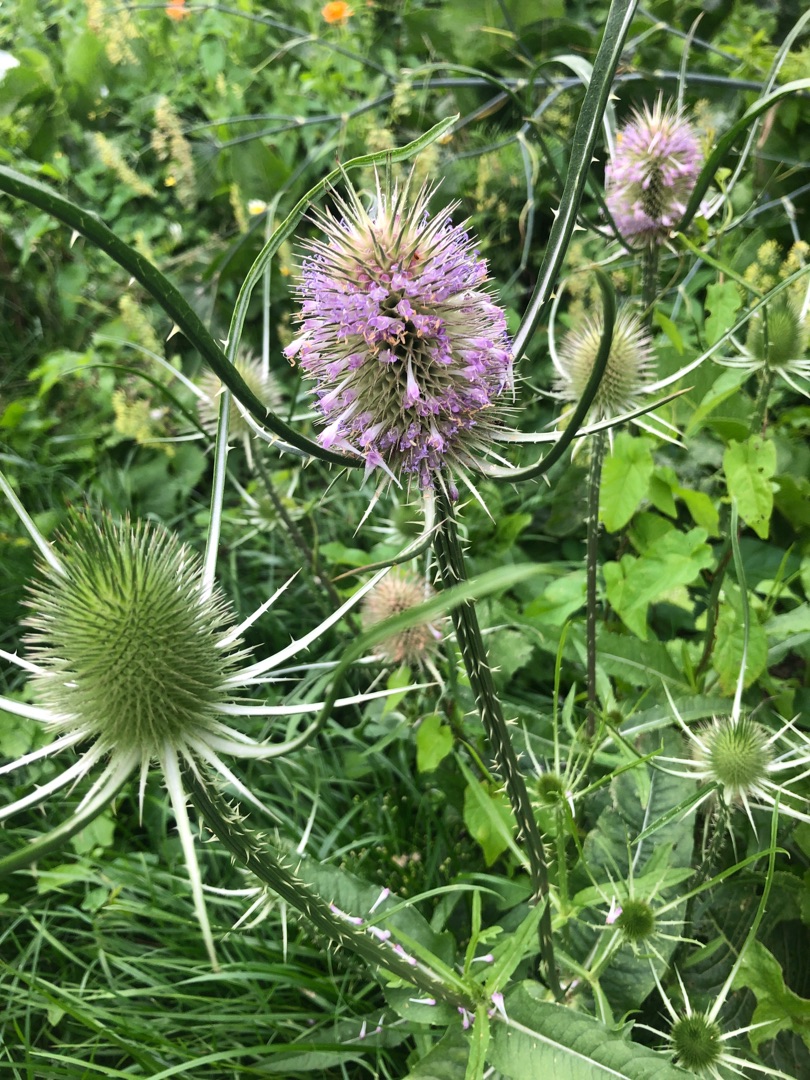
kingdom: Plantae
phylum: Tracheophyta
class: Magnoliopsida
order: Dipsacales
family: Caprifoliaceae
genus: Dipsacus
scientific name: Dipsacus fullonum
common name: Gærde-kartebolle
